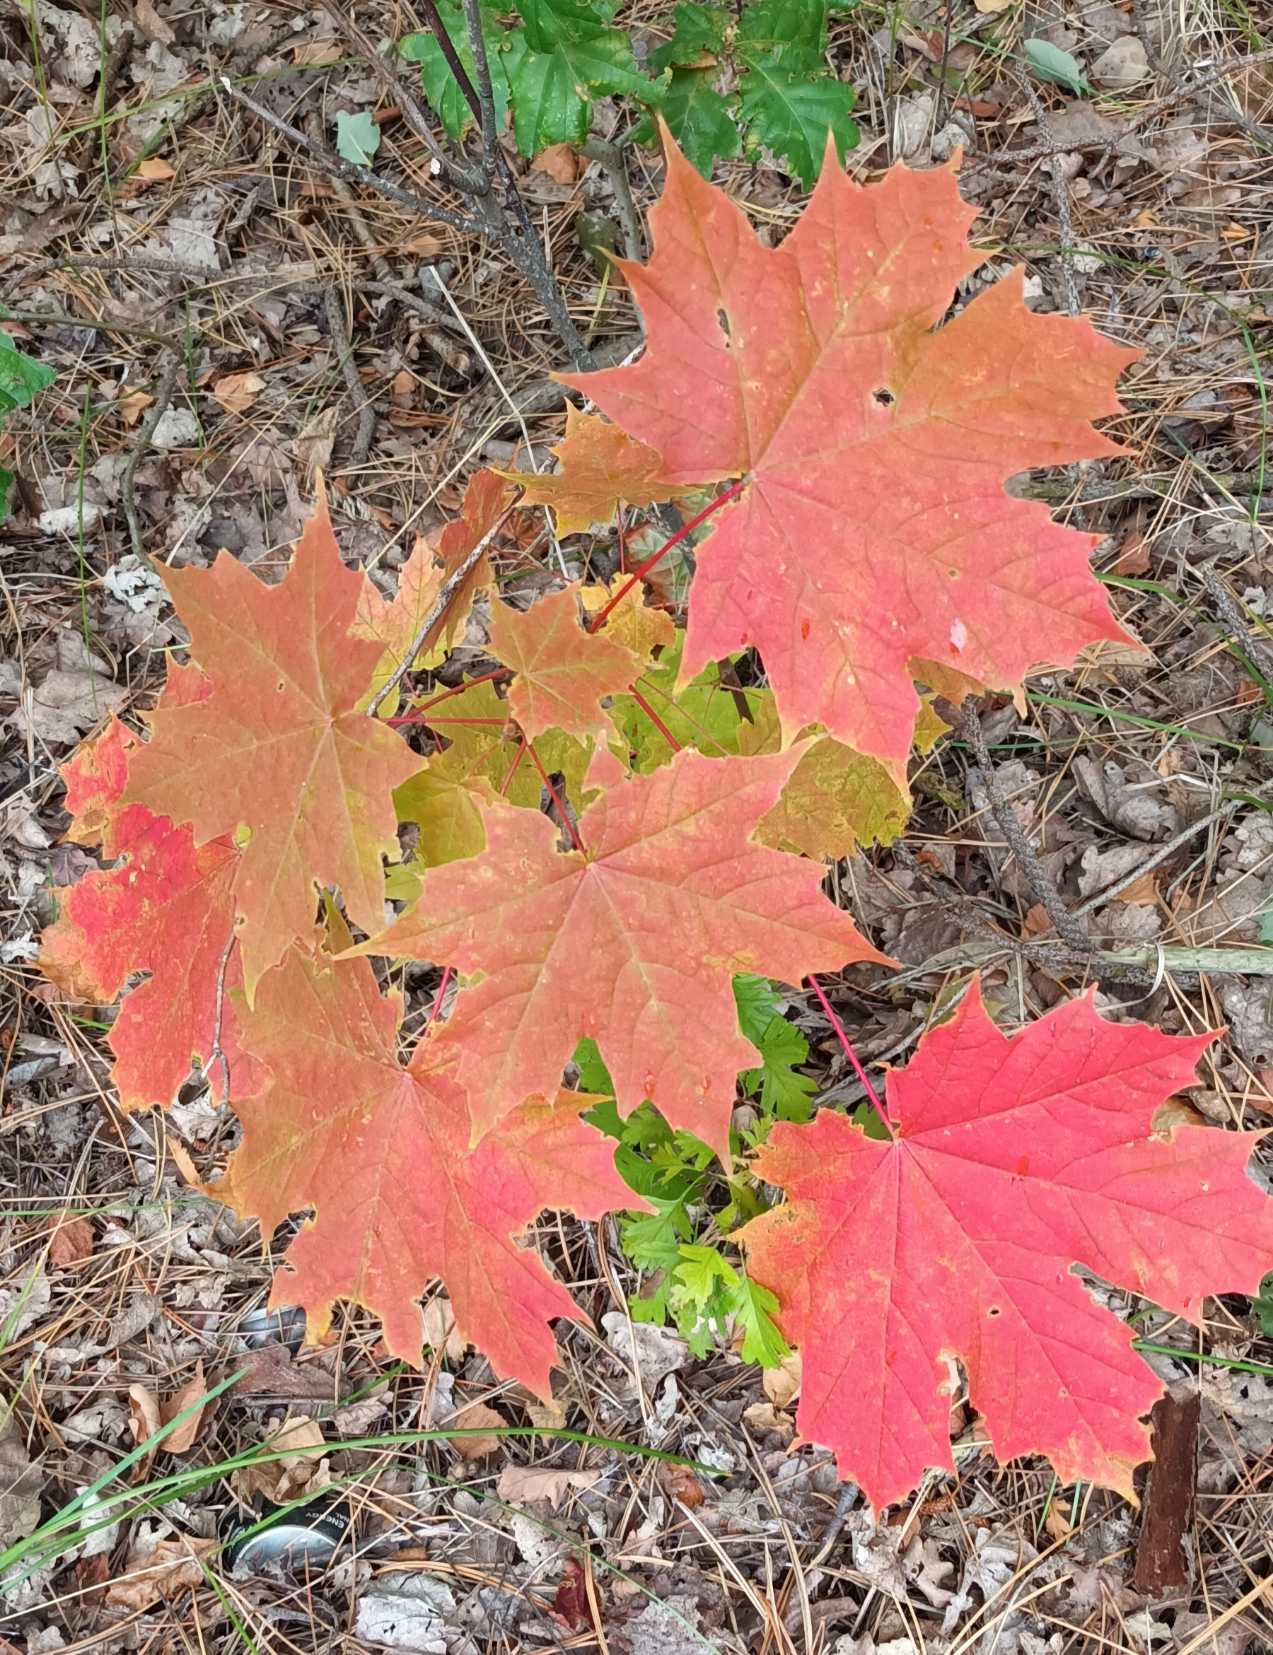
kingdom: Plantae
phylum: Tracheophyta
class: Magnoliopsida
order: Sapindales
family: Sapindaceae
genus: Acer
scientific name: Acer platanoides
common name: Spids-løn
